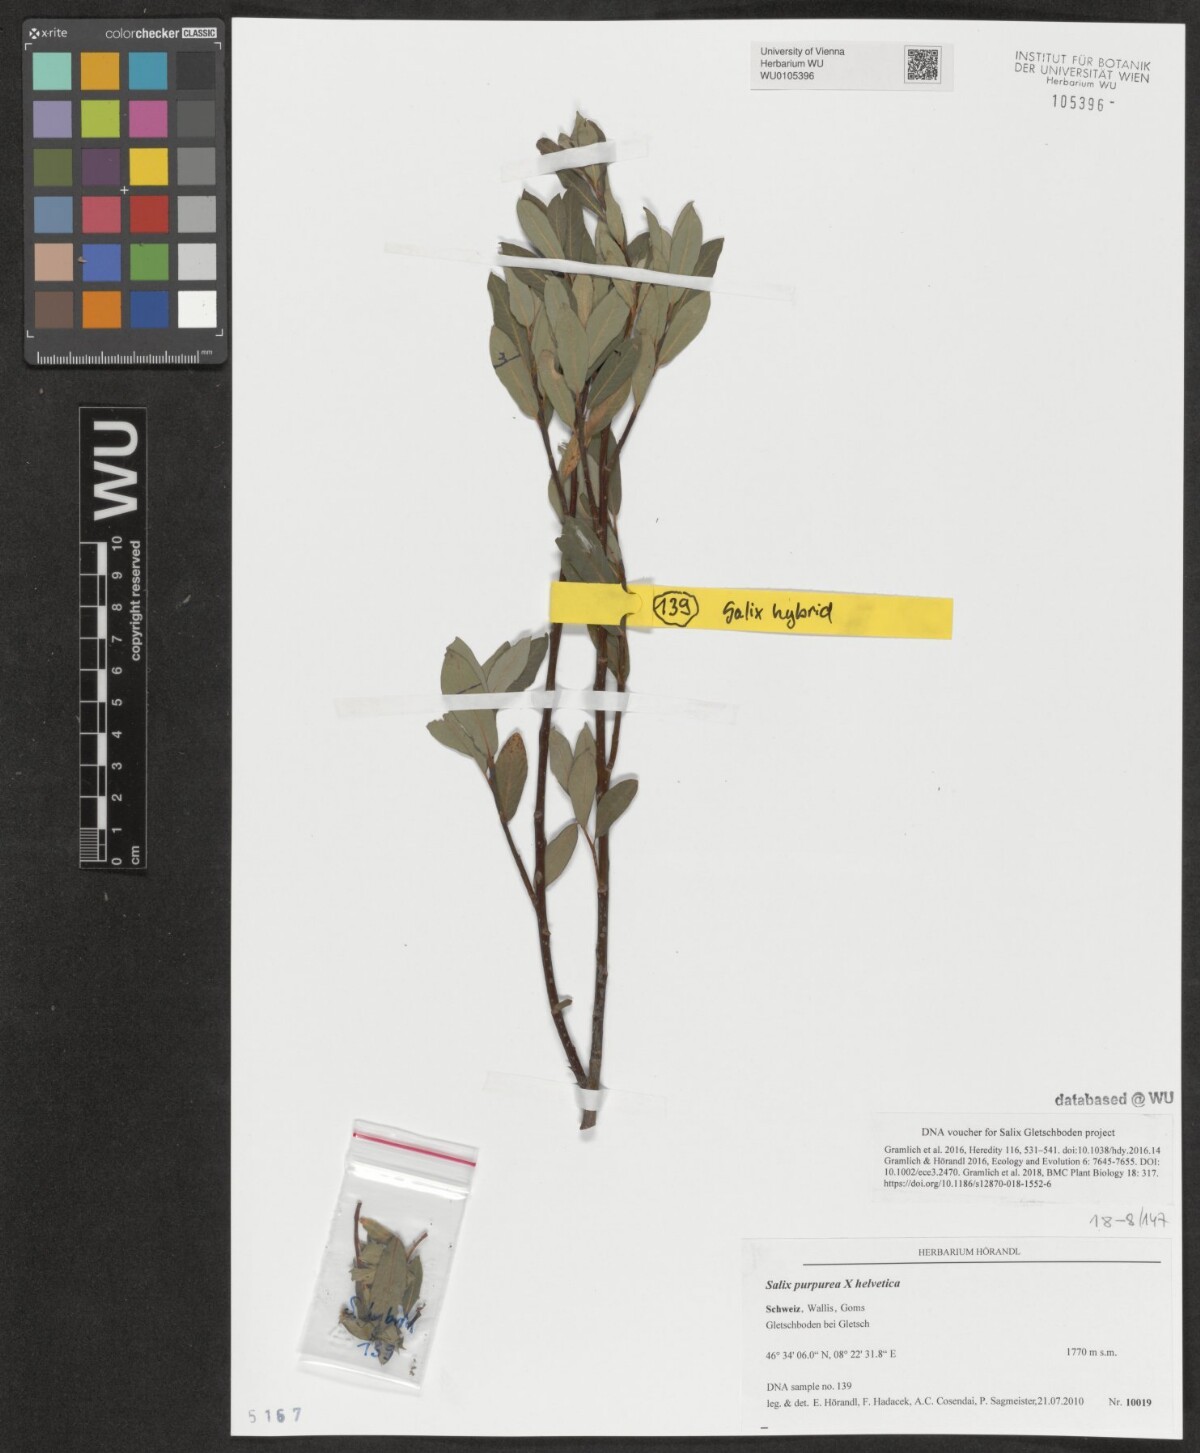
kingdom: Plantae
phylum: Tracheophyta
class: Magnoliopsida
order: Malpighiales
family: Salicaceae
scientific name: Salicaceae
